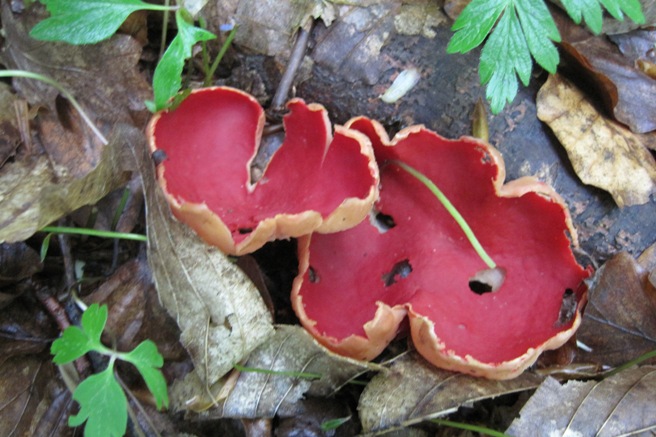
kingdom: Fungi
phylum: Ascomycota
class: Pezizomycetes
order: Pezizales
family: Sarcoscyphaceae
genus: Sarcoscypha
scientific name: Sarcoscypha austriaca
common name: krølhåret pragtbæger
